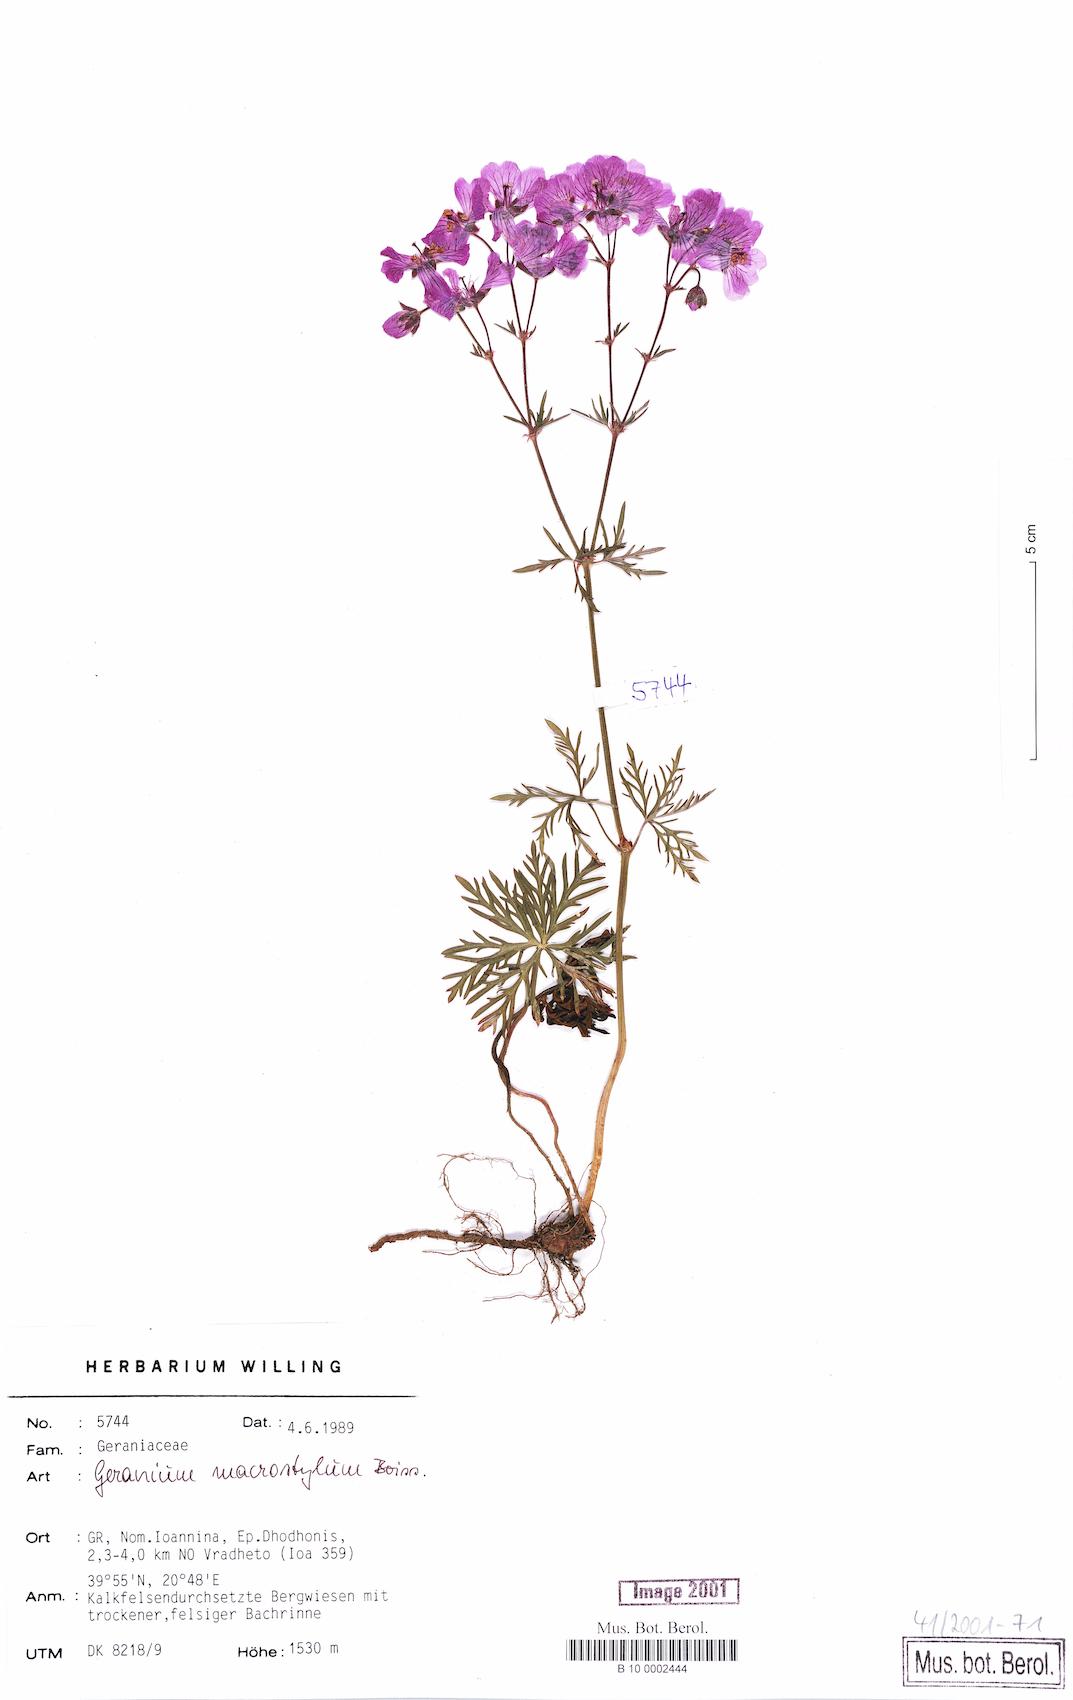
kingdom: Plantae
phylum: Tracheophyta
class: Magnoliopsida
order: Geraniales
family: Geraniaceae
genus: Geranium
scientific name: Geranium macrostylum
